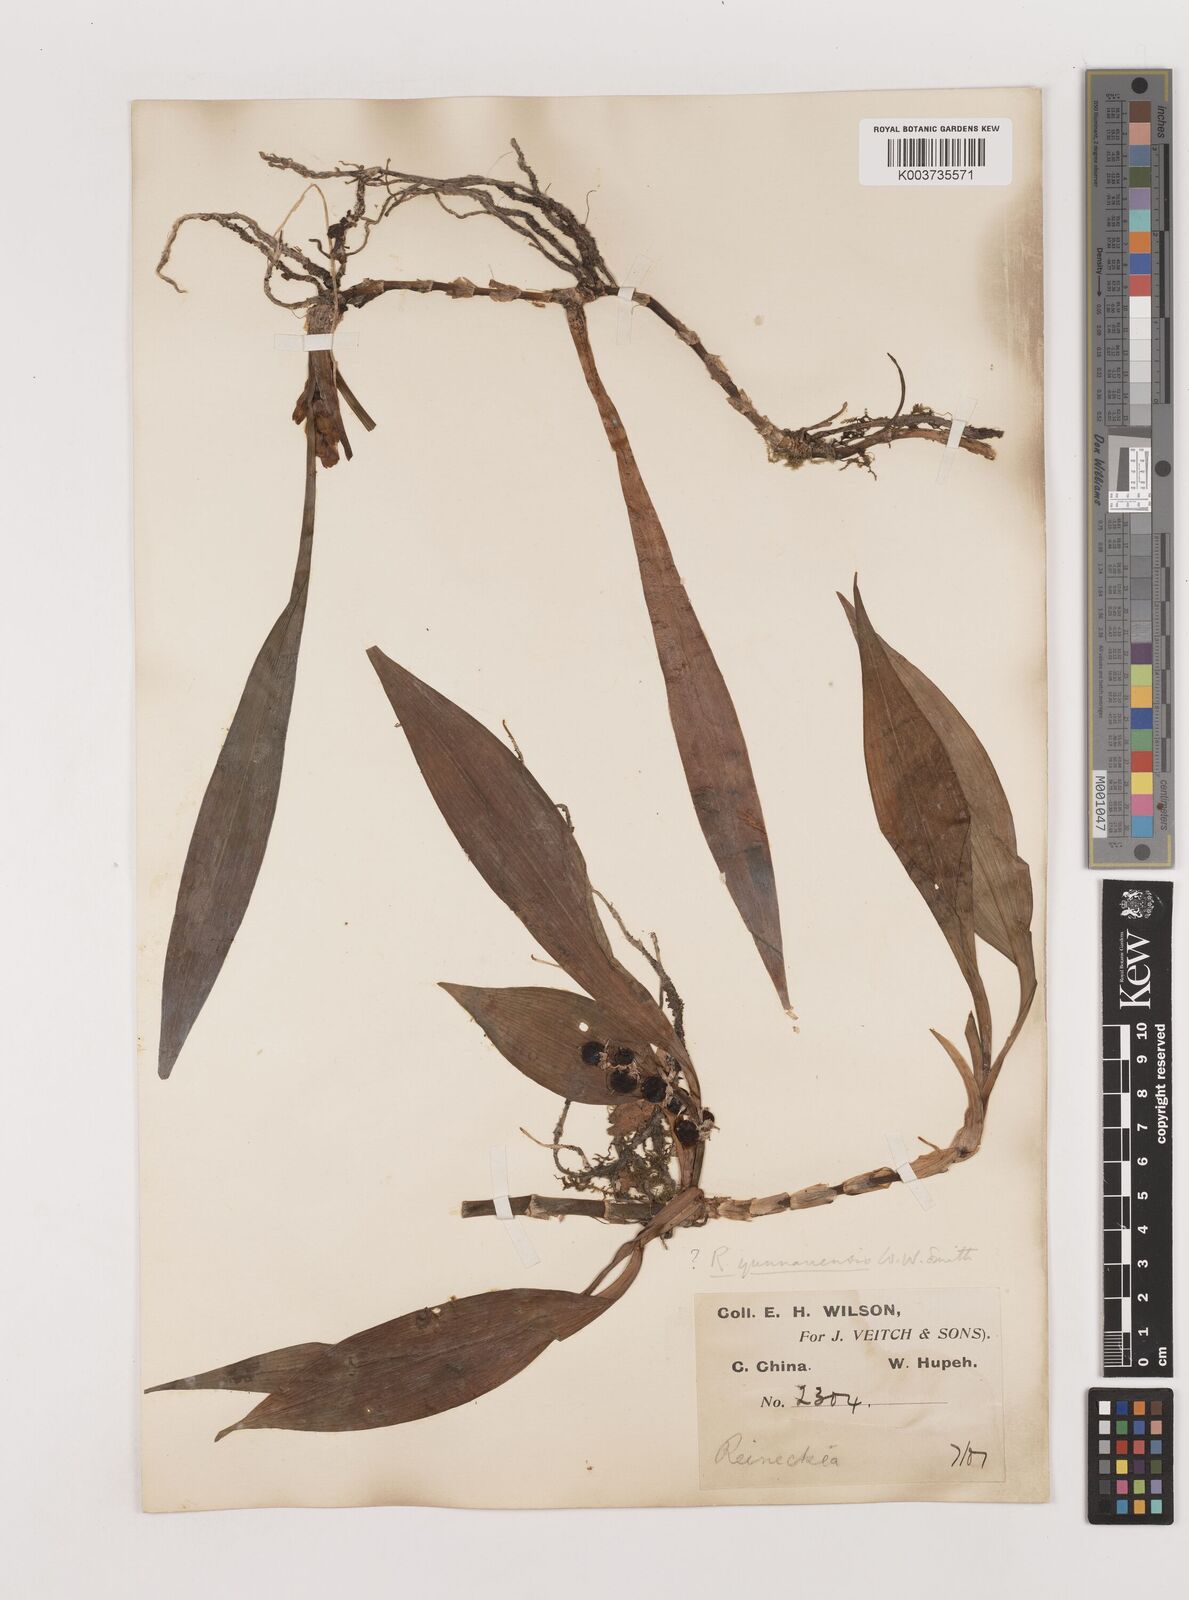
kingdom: Plantae
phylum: Tracheophyta
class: Liliopsida
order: Asparagales
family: Asparagaceae
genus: Reineckea
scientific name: Reineckea carnea
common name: Reineckea
